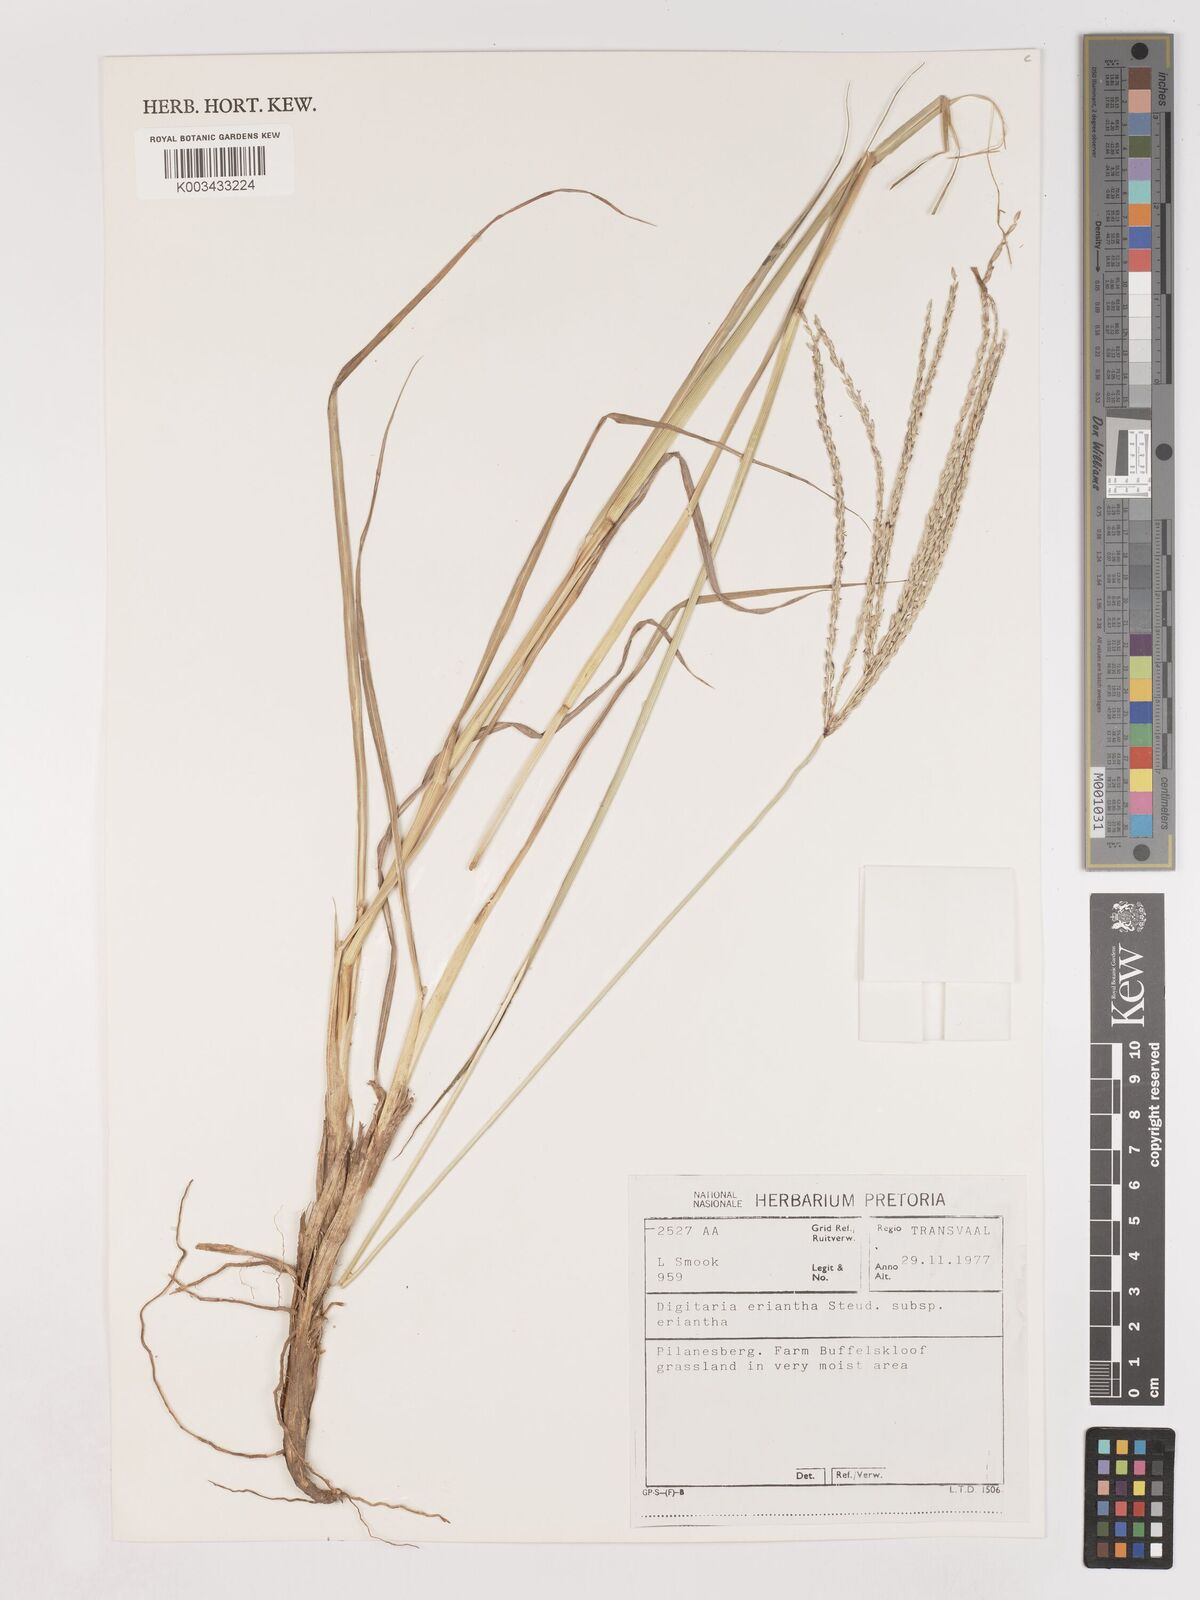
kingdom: Plantae
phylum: Tracheophyta
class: Liliopsida
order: Poales
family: Poaceae
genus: Digitaria
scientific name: Digitaria eriantha
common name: Digitgrass
